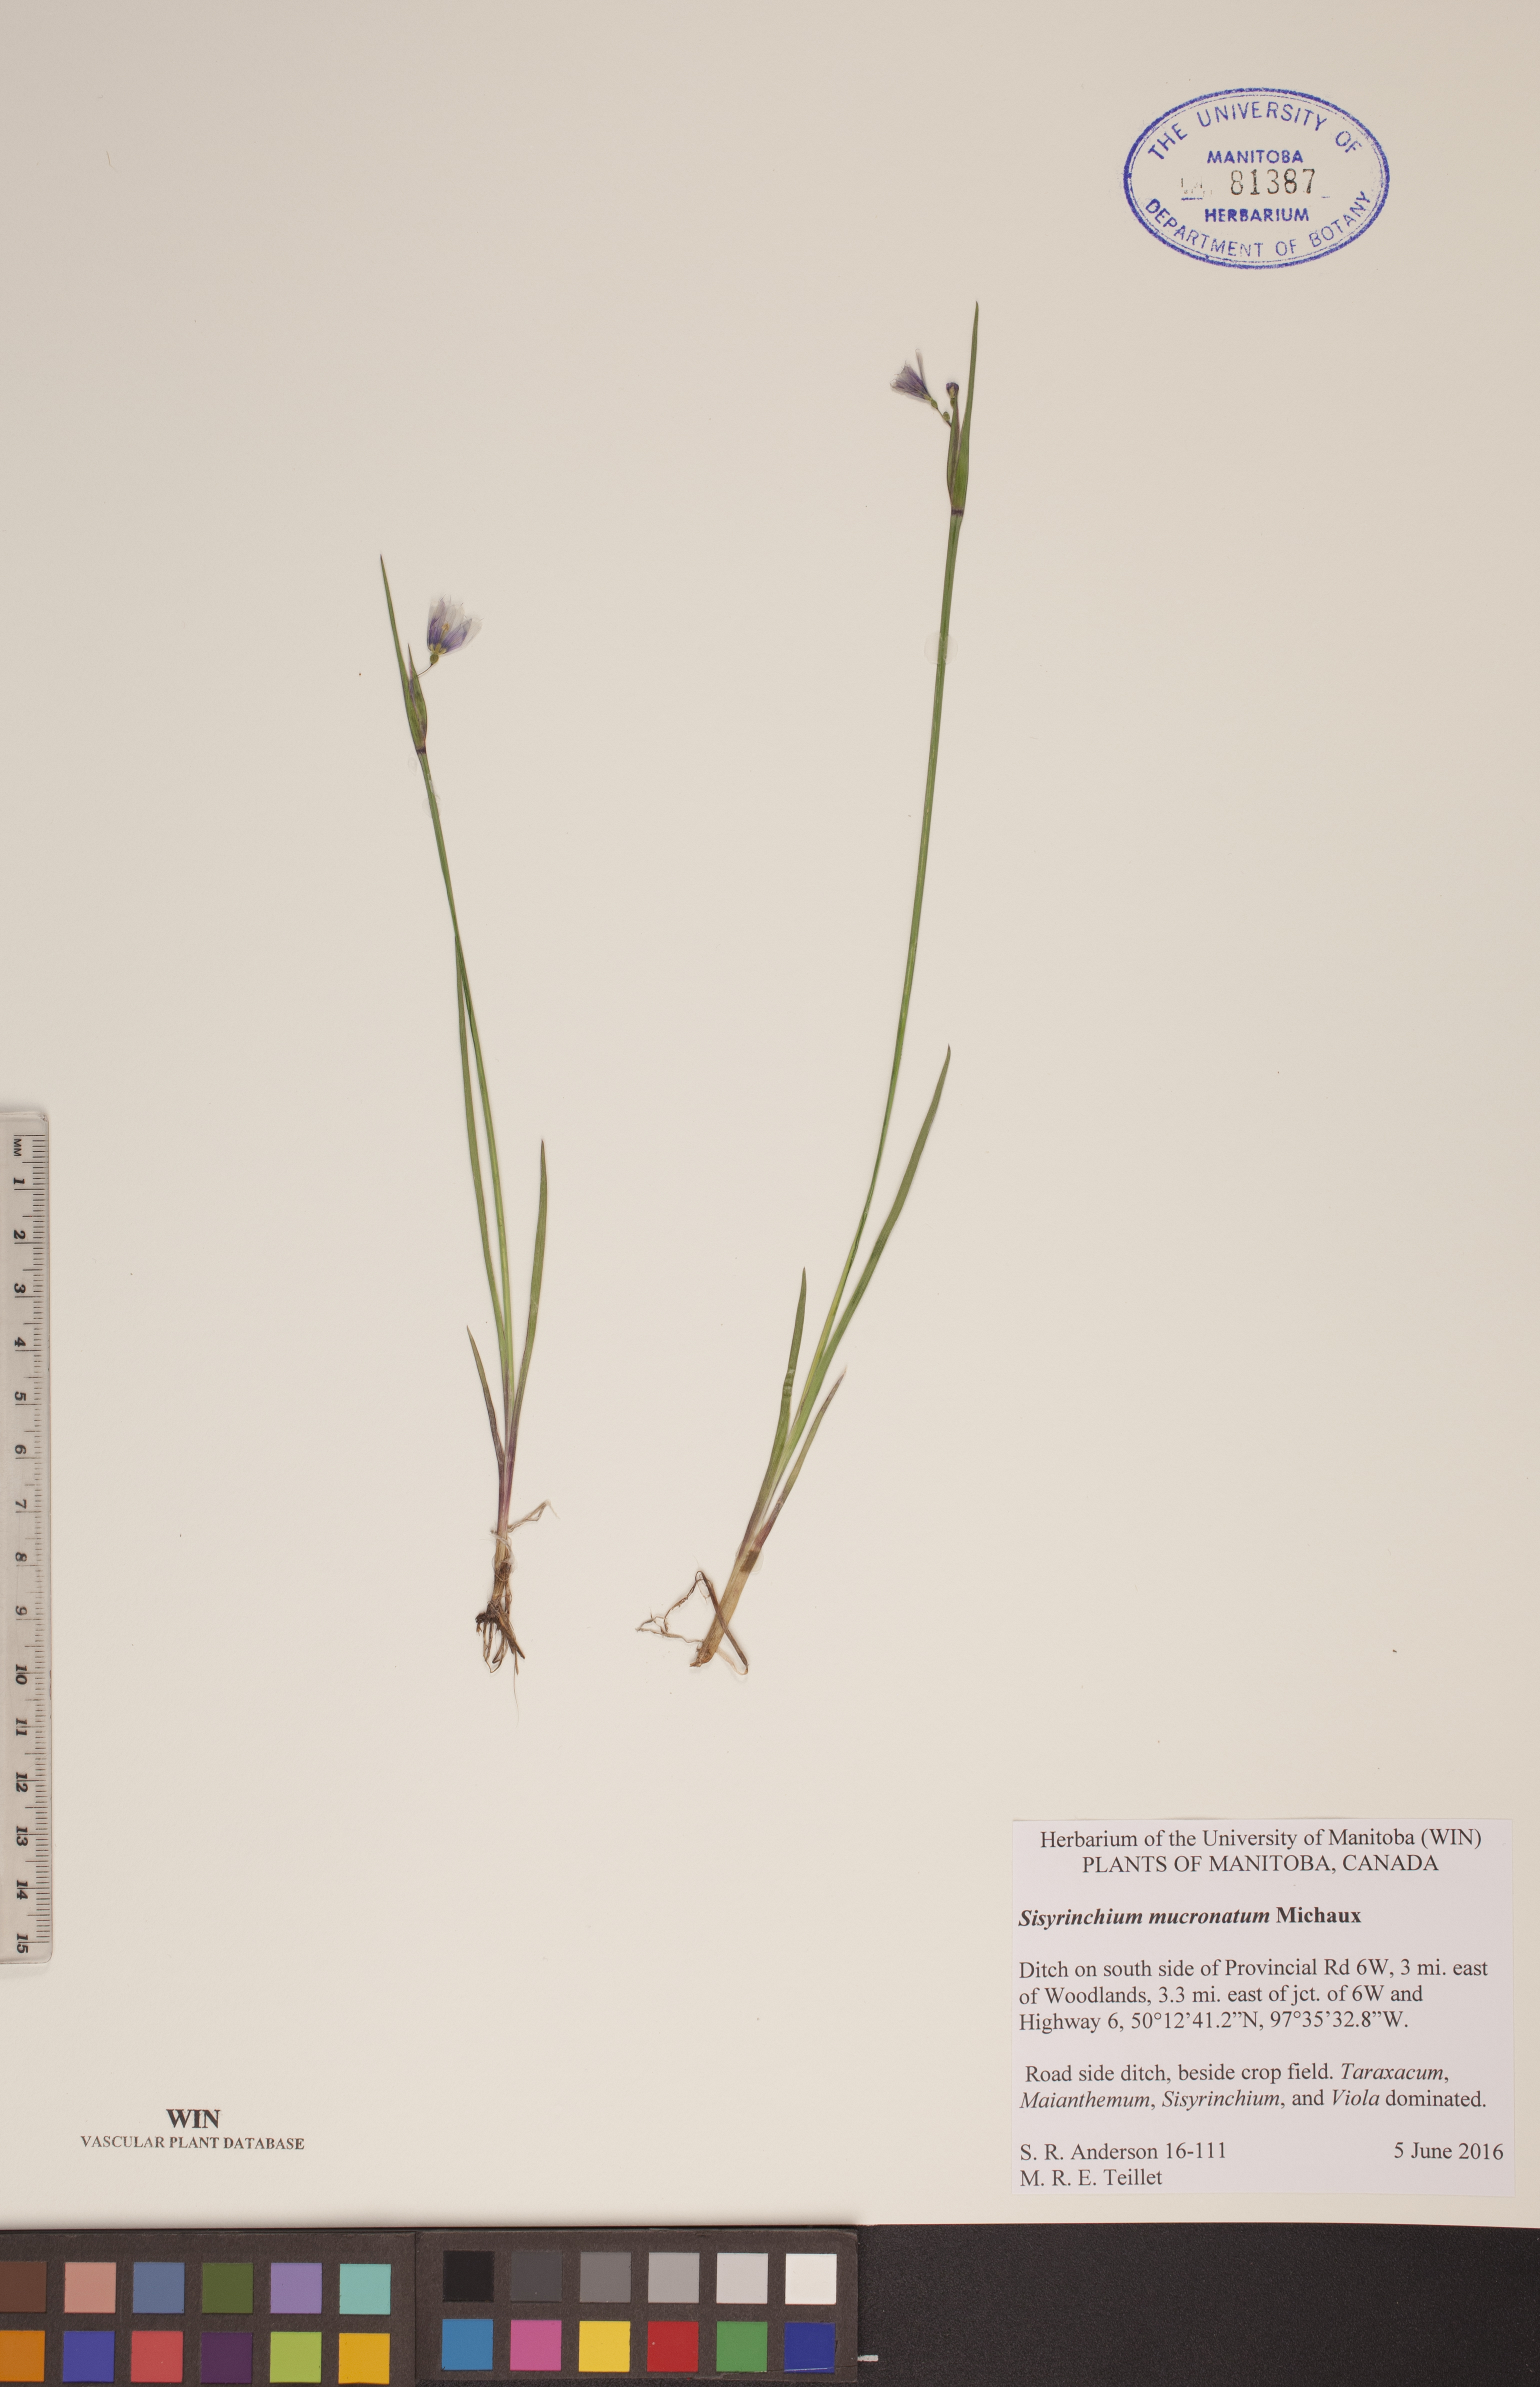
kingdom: Plantae
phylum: Tracheophyta
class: Liliopsida
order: Asparagales
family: Iridaceae
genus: Sisyrinchium
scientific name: Sisyrinchium mucronatum
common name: Eastern blue-eyed-grass
